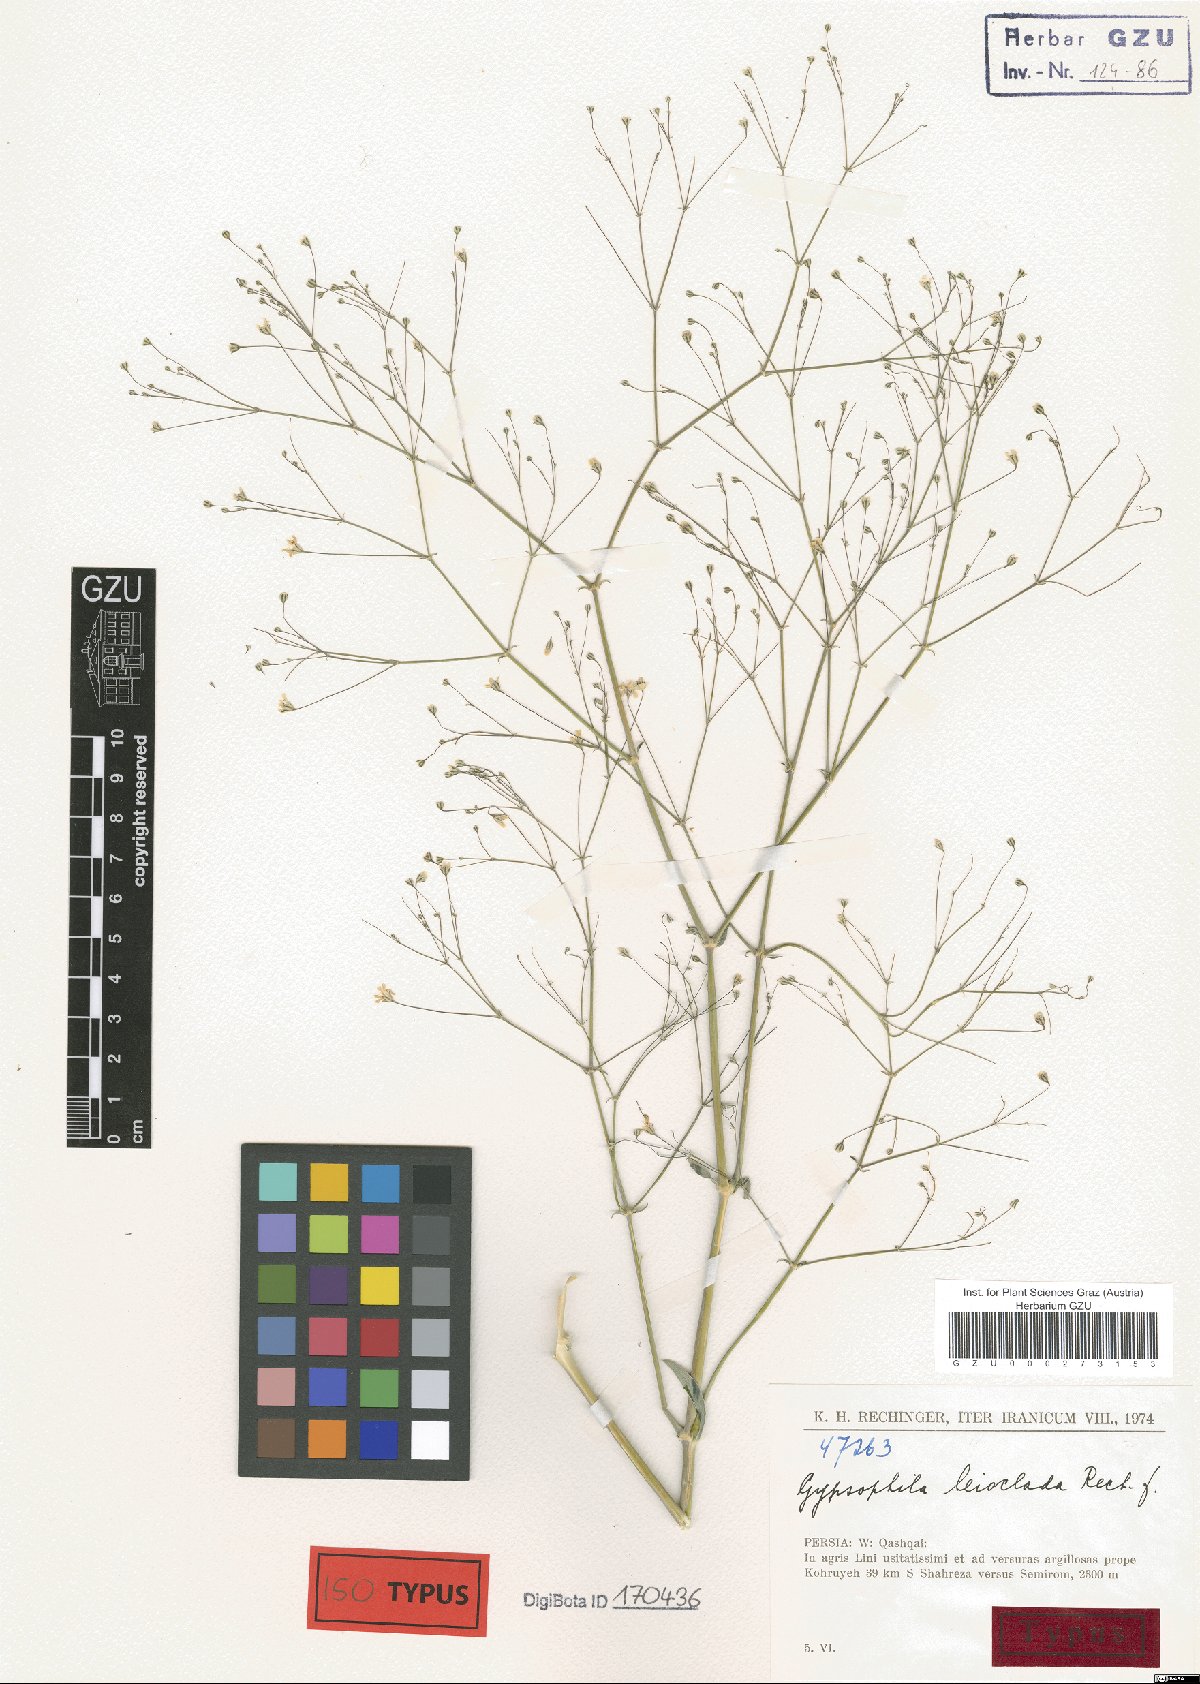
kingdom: Plantae
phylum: Tracheophyta
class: Magnoliopsida
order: Caryophyllales
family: Caryophyllaceae
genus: Gypsophila
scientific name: Gypsophila polyclada
